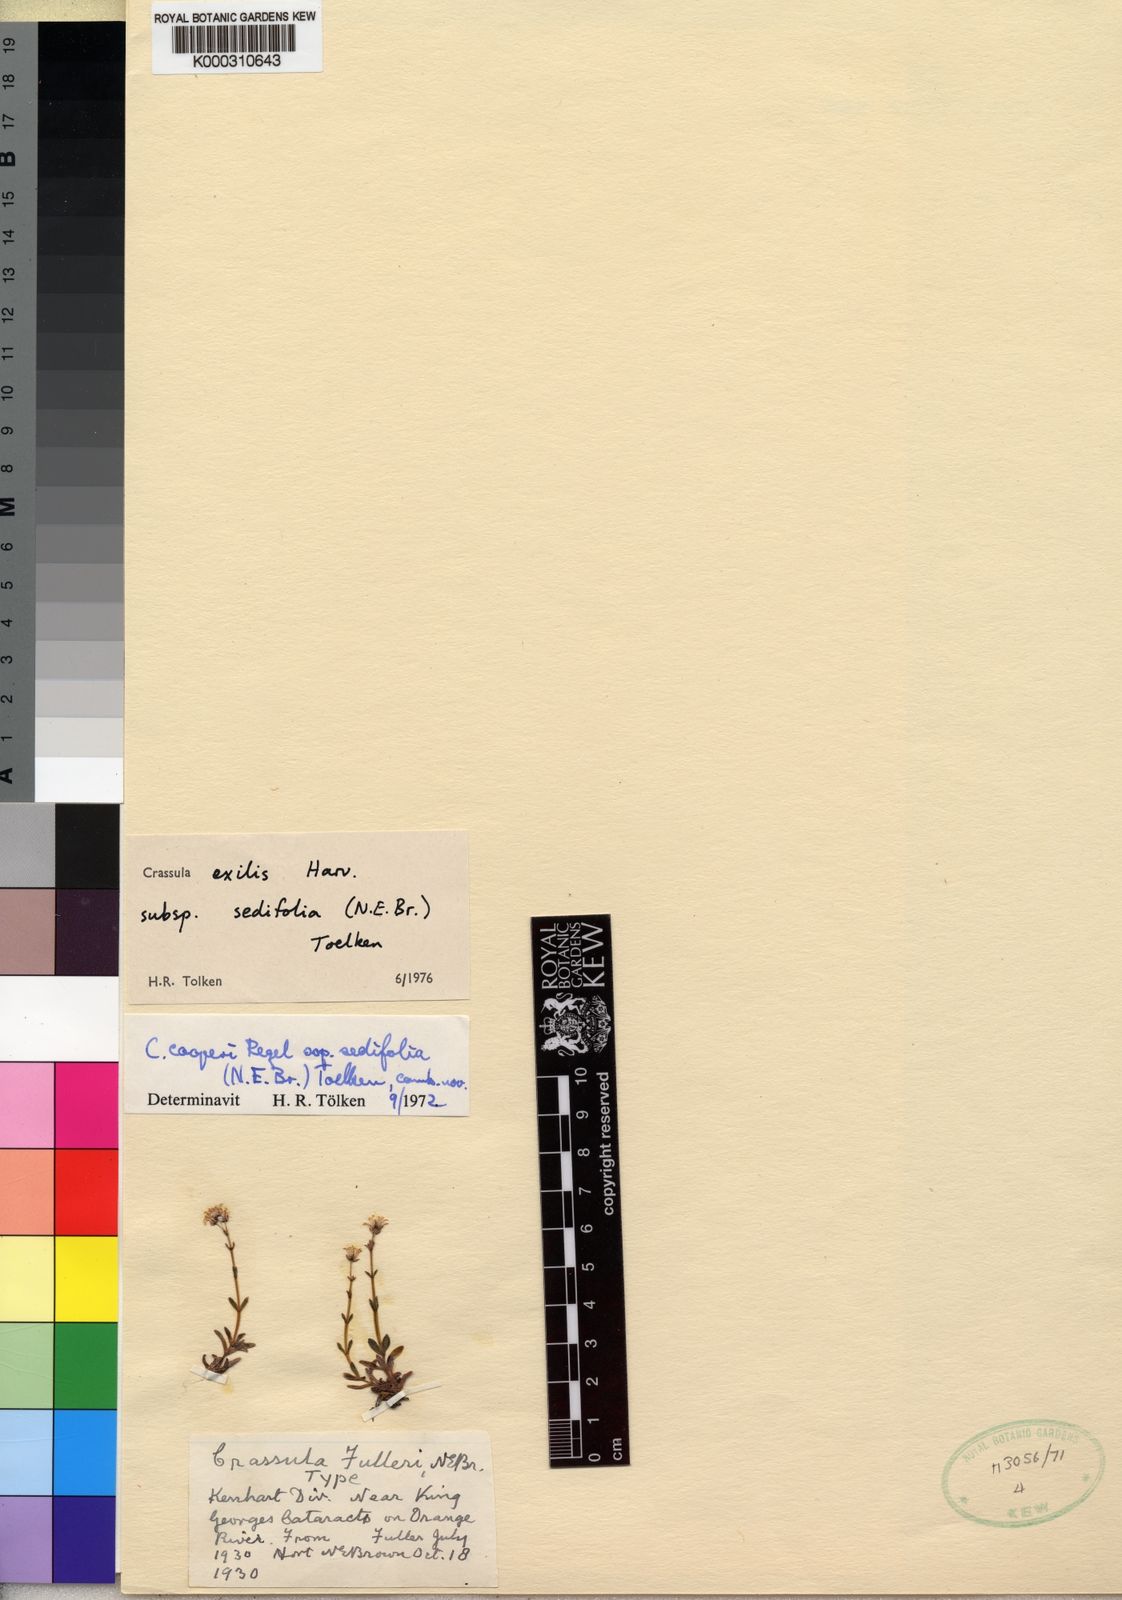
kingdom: Plantae
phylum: Tracheophyta
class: Magnoliopsida
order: Saxifragales
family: Crassulaceae
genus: Crassula
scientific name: Crassula exilis
